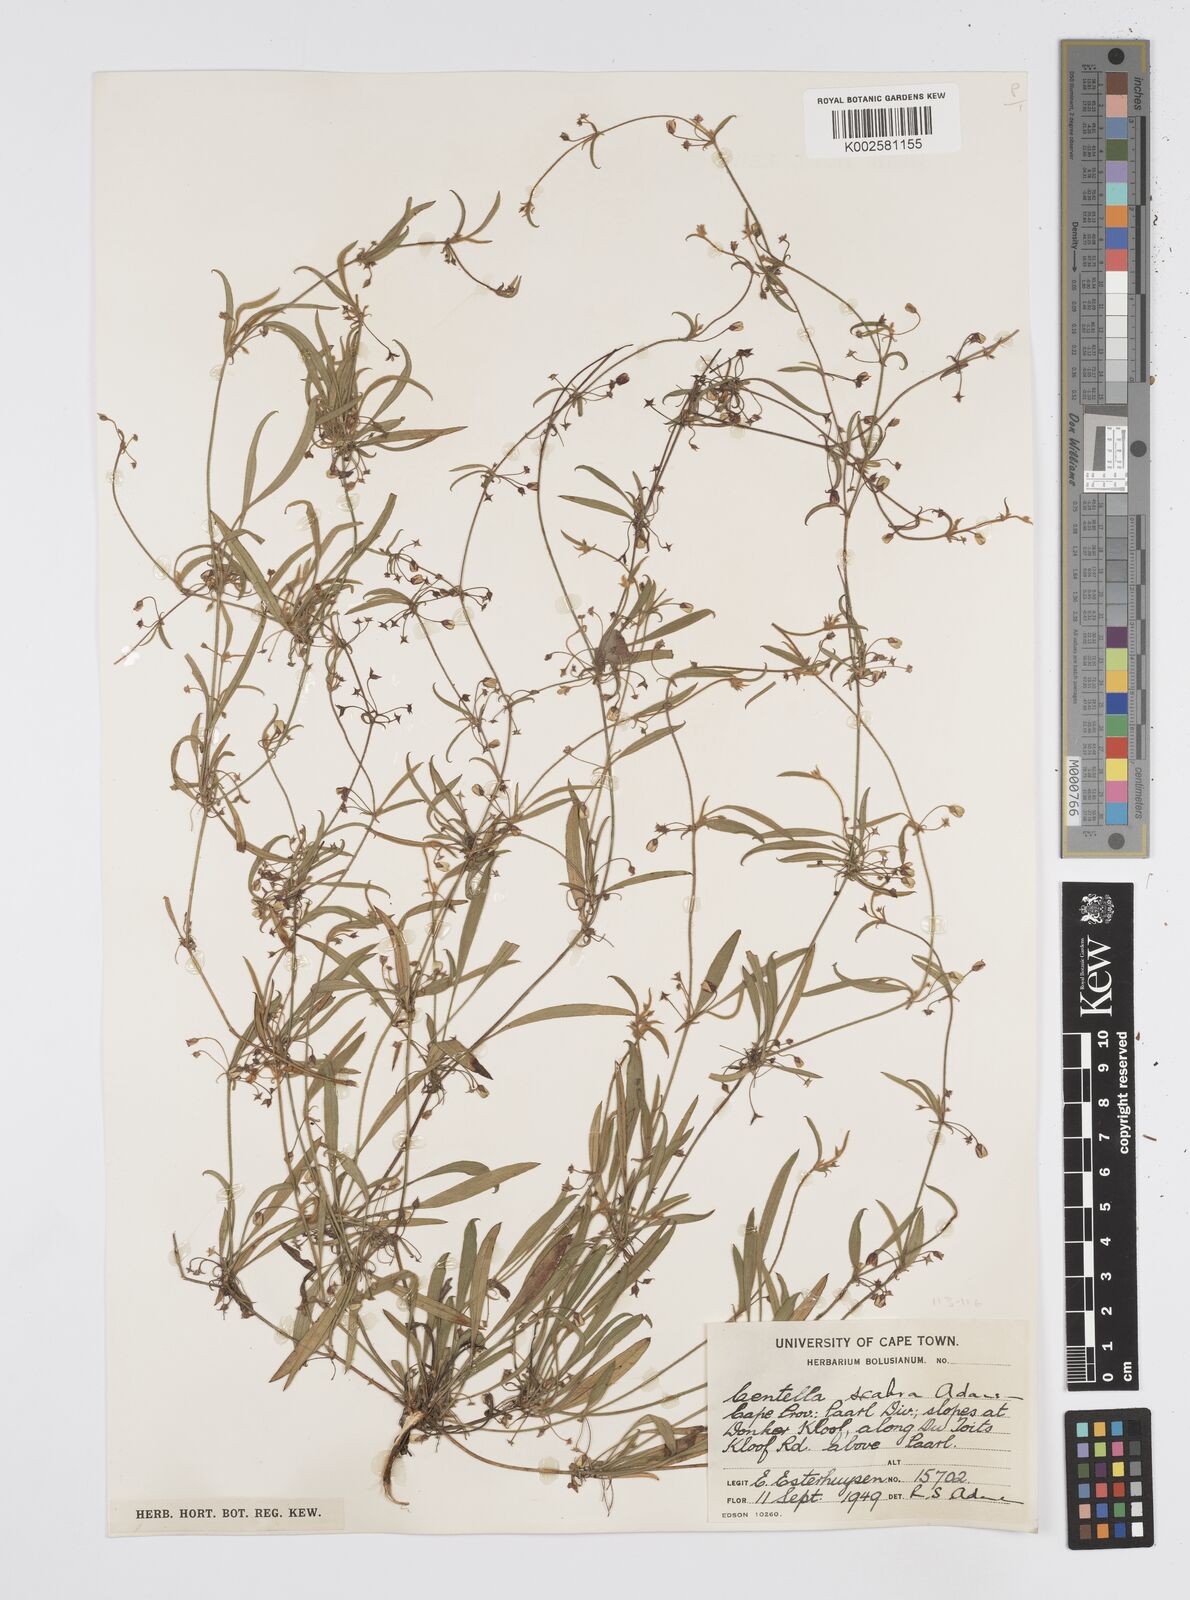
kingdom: Plantae
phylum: Tracheophyta
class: Magnoliopsida
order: Apiales
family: Apiaceae
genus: Centella
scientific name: Centella scabra
